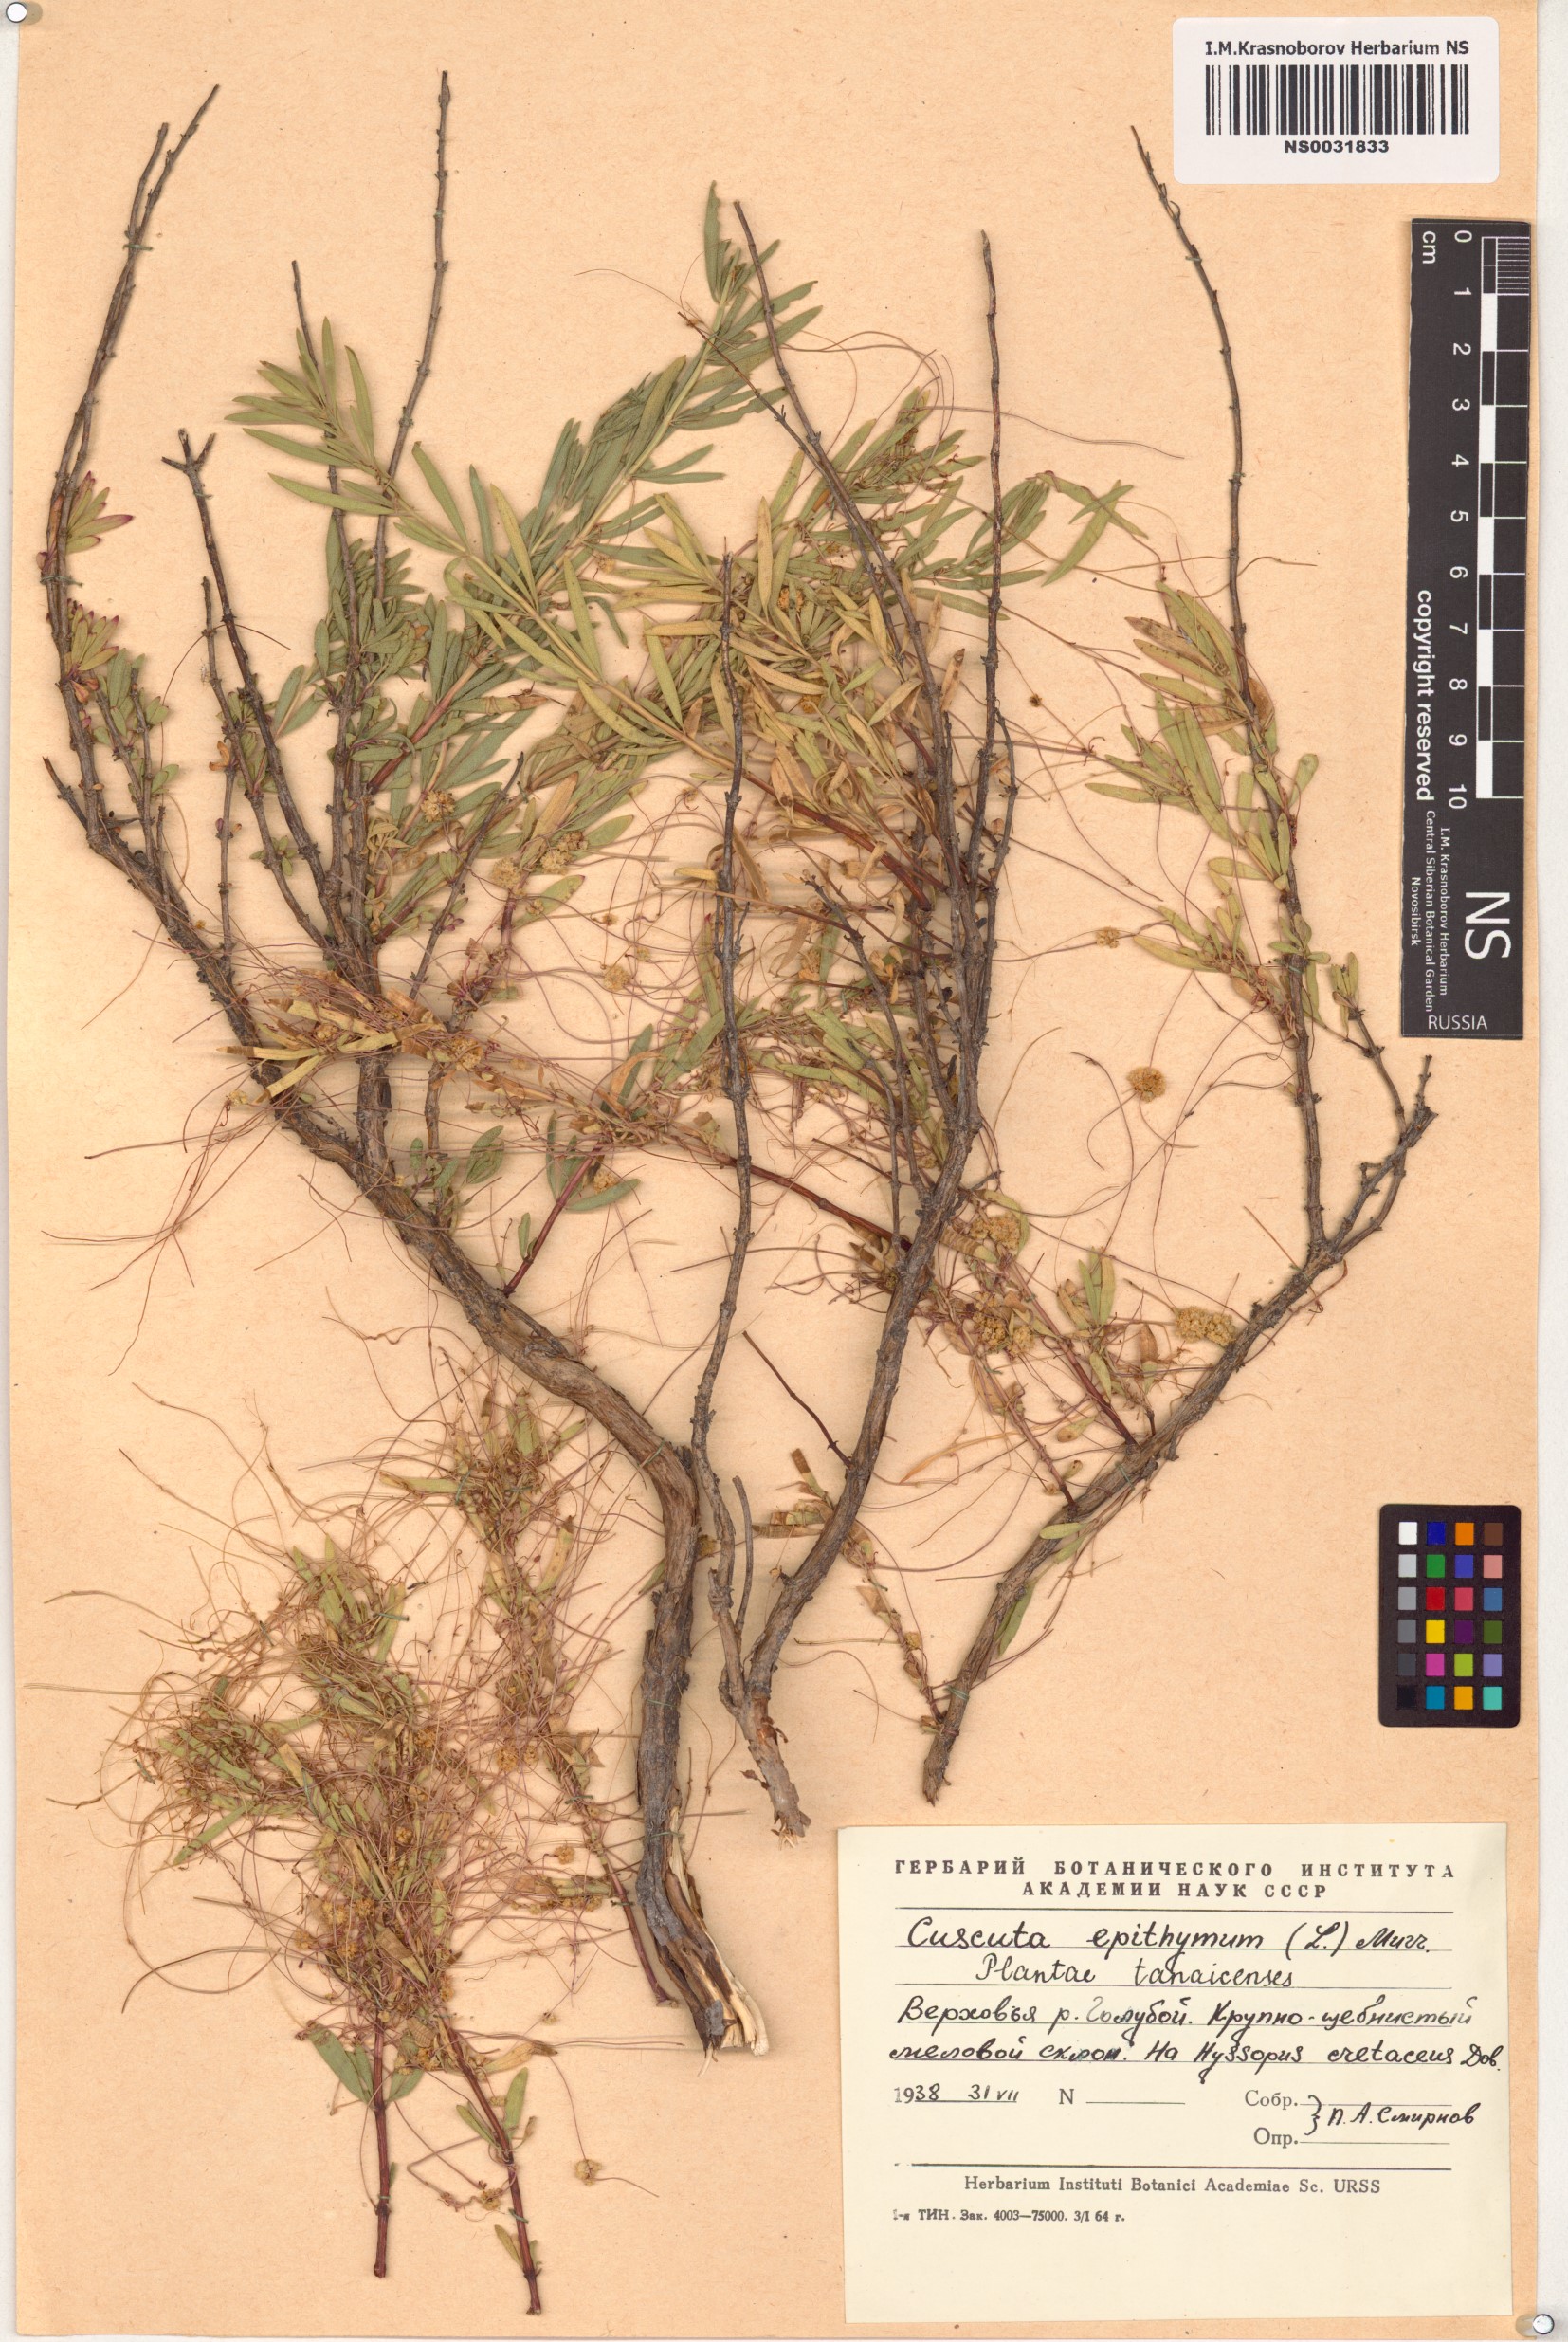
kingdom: Plantae
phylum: Tracheophyta
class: Magnoliopsida
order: Solanales
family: Convolvulaceae
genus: Cuscuta
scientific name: Cuscuta epithymum
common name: Clover dodder
